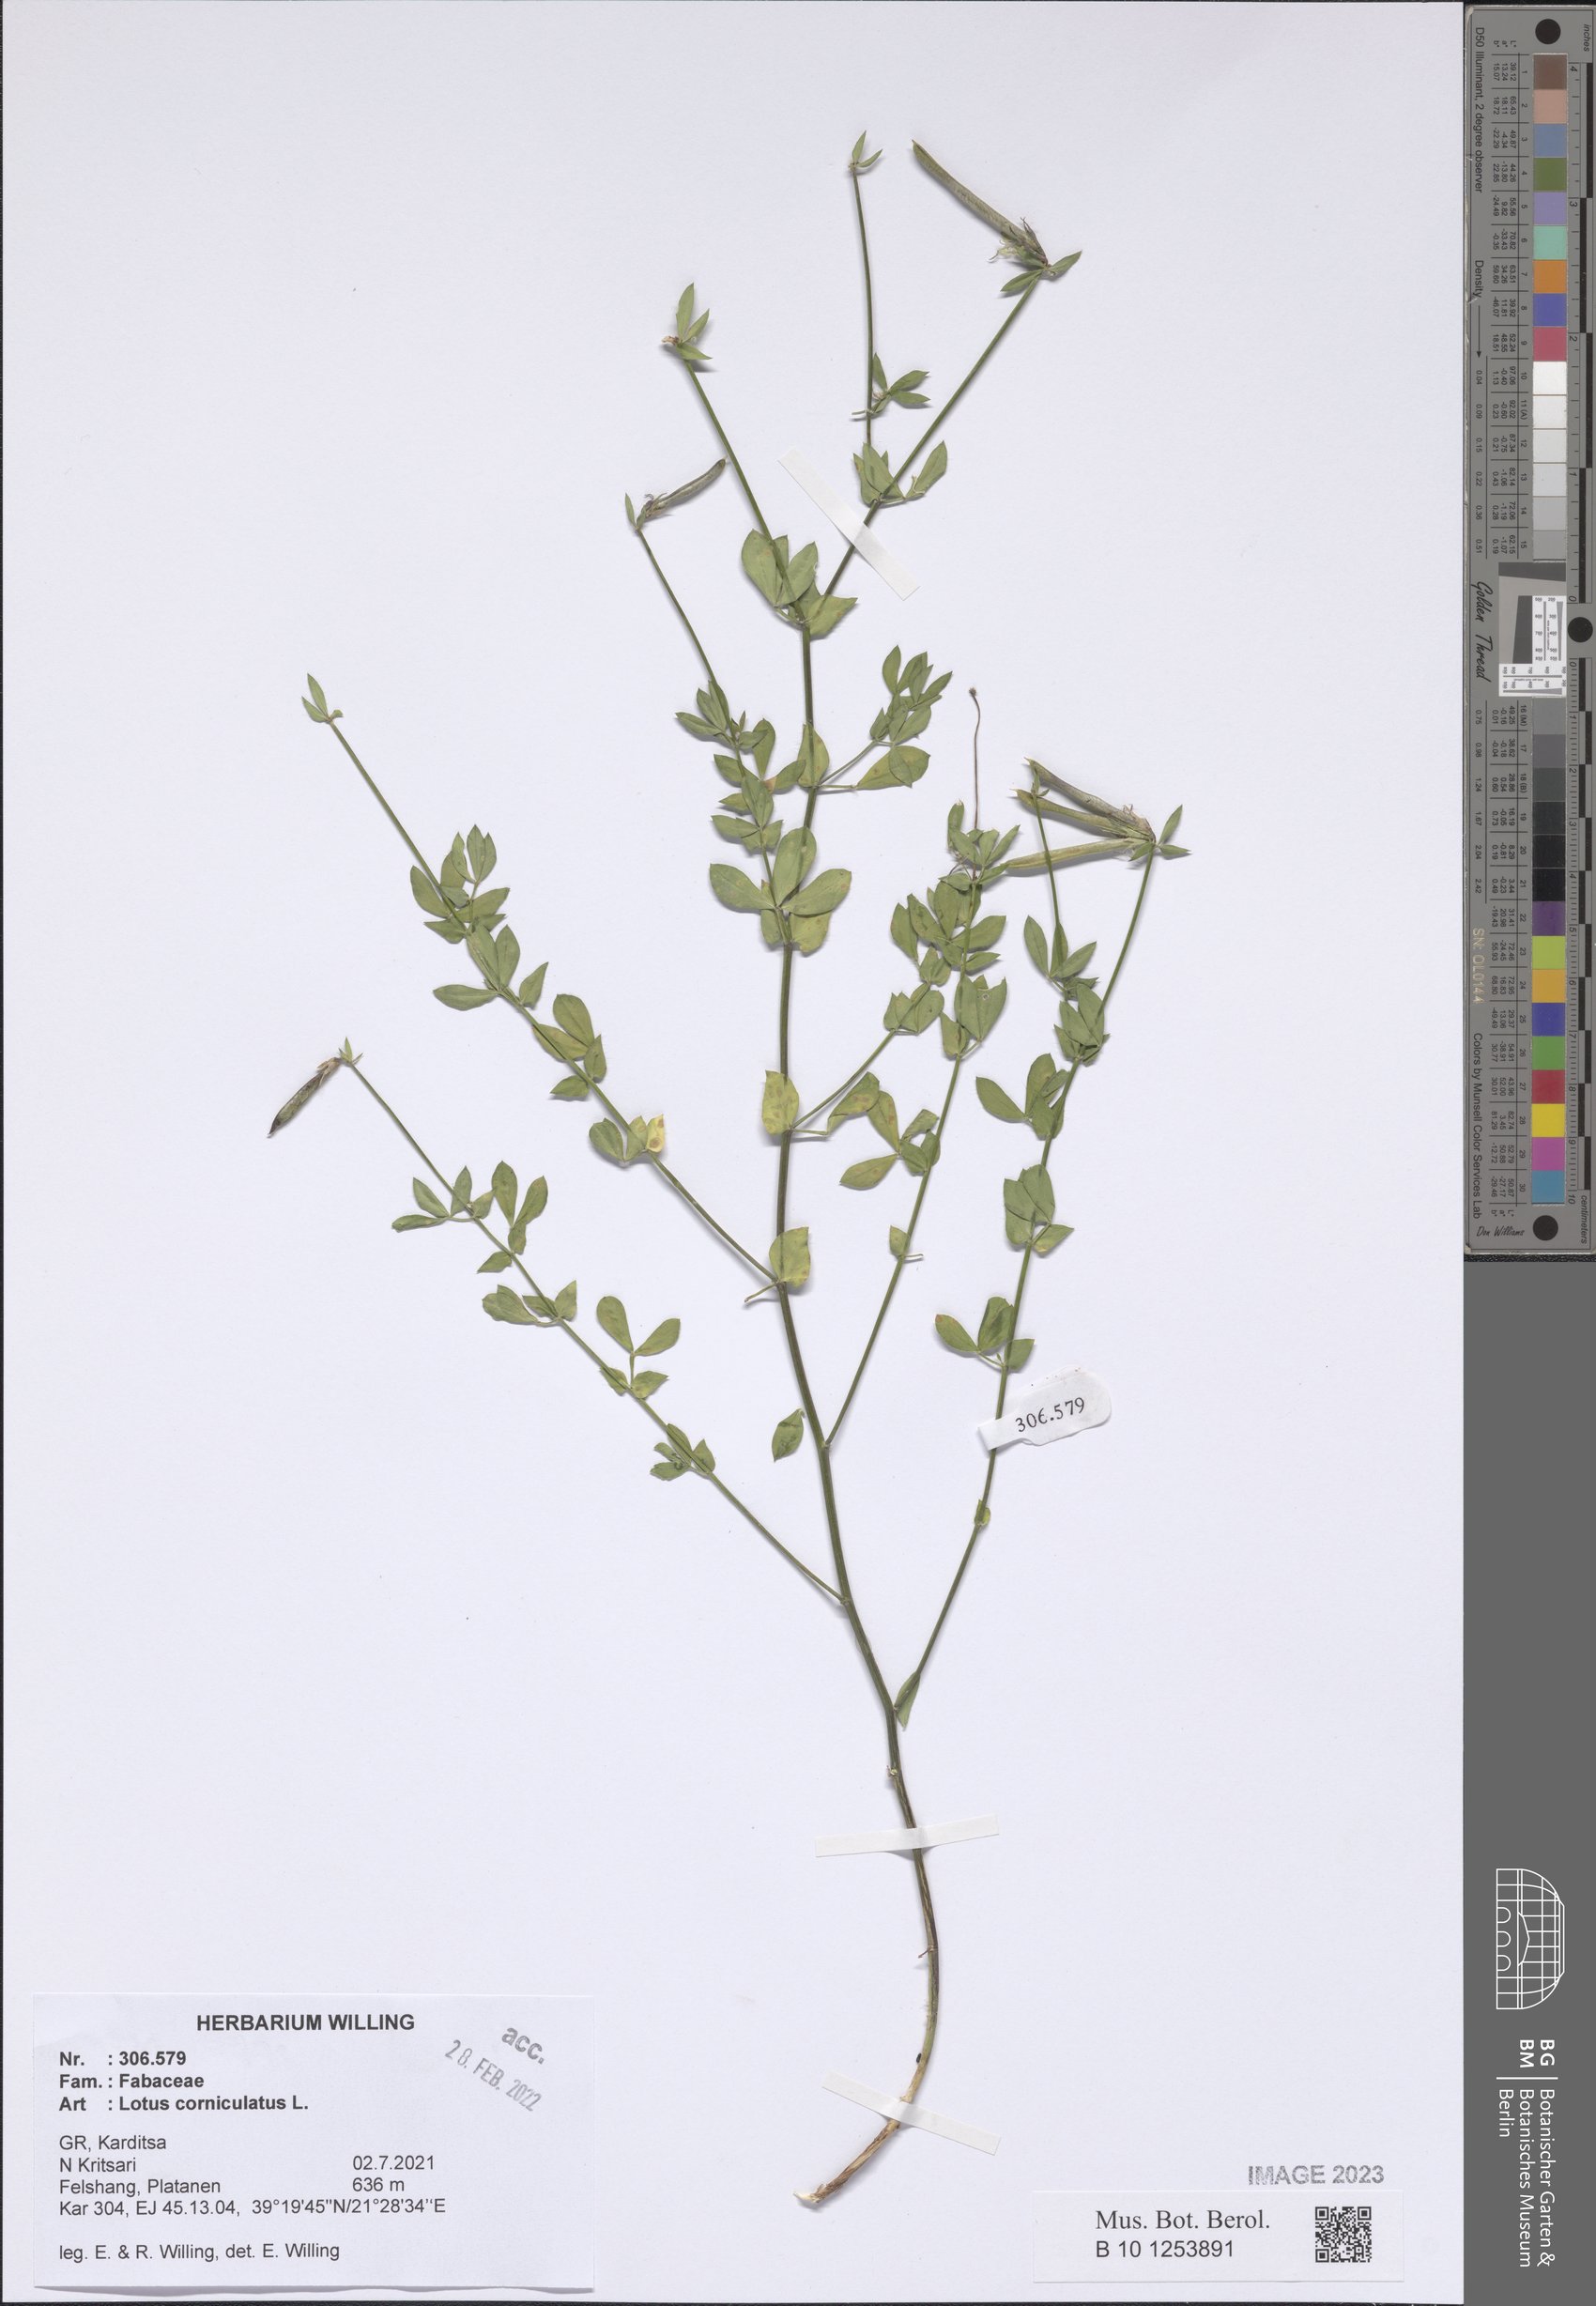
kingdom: Plantae
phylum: Tracheophyta
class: Magnoliopsida
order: Fabales
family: Fabaceae
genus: Lotus
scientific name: Lotus corniculatus
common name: Common bird's-foot-trefoil
